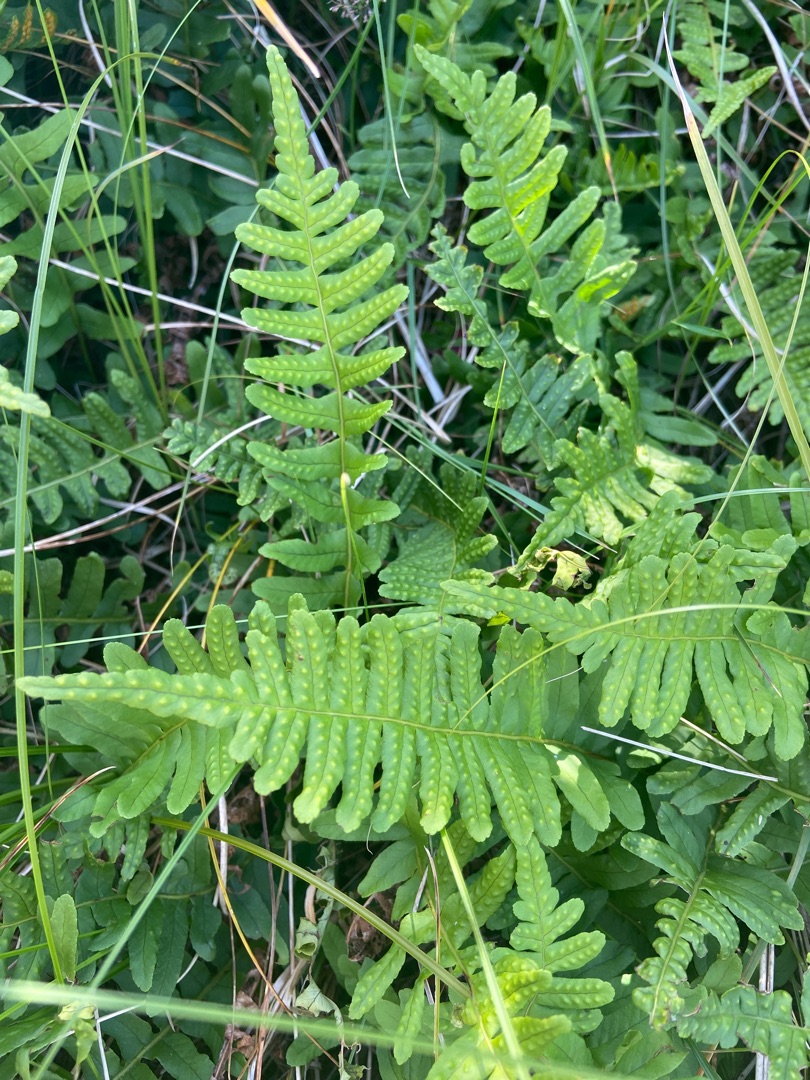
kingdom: Plantae
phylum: Tracheophyta
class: Polypodiopsida
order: Polypodiales
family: Polypodiaceae
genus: Polypodium
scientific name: Polypodium vulgare
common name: Almindelig engelsød
